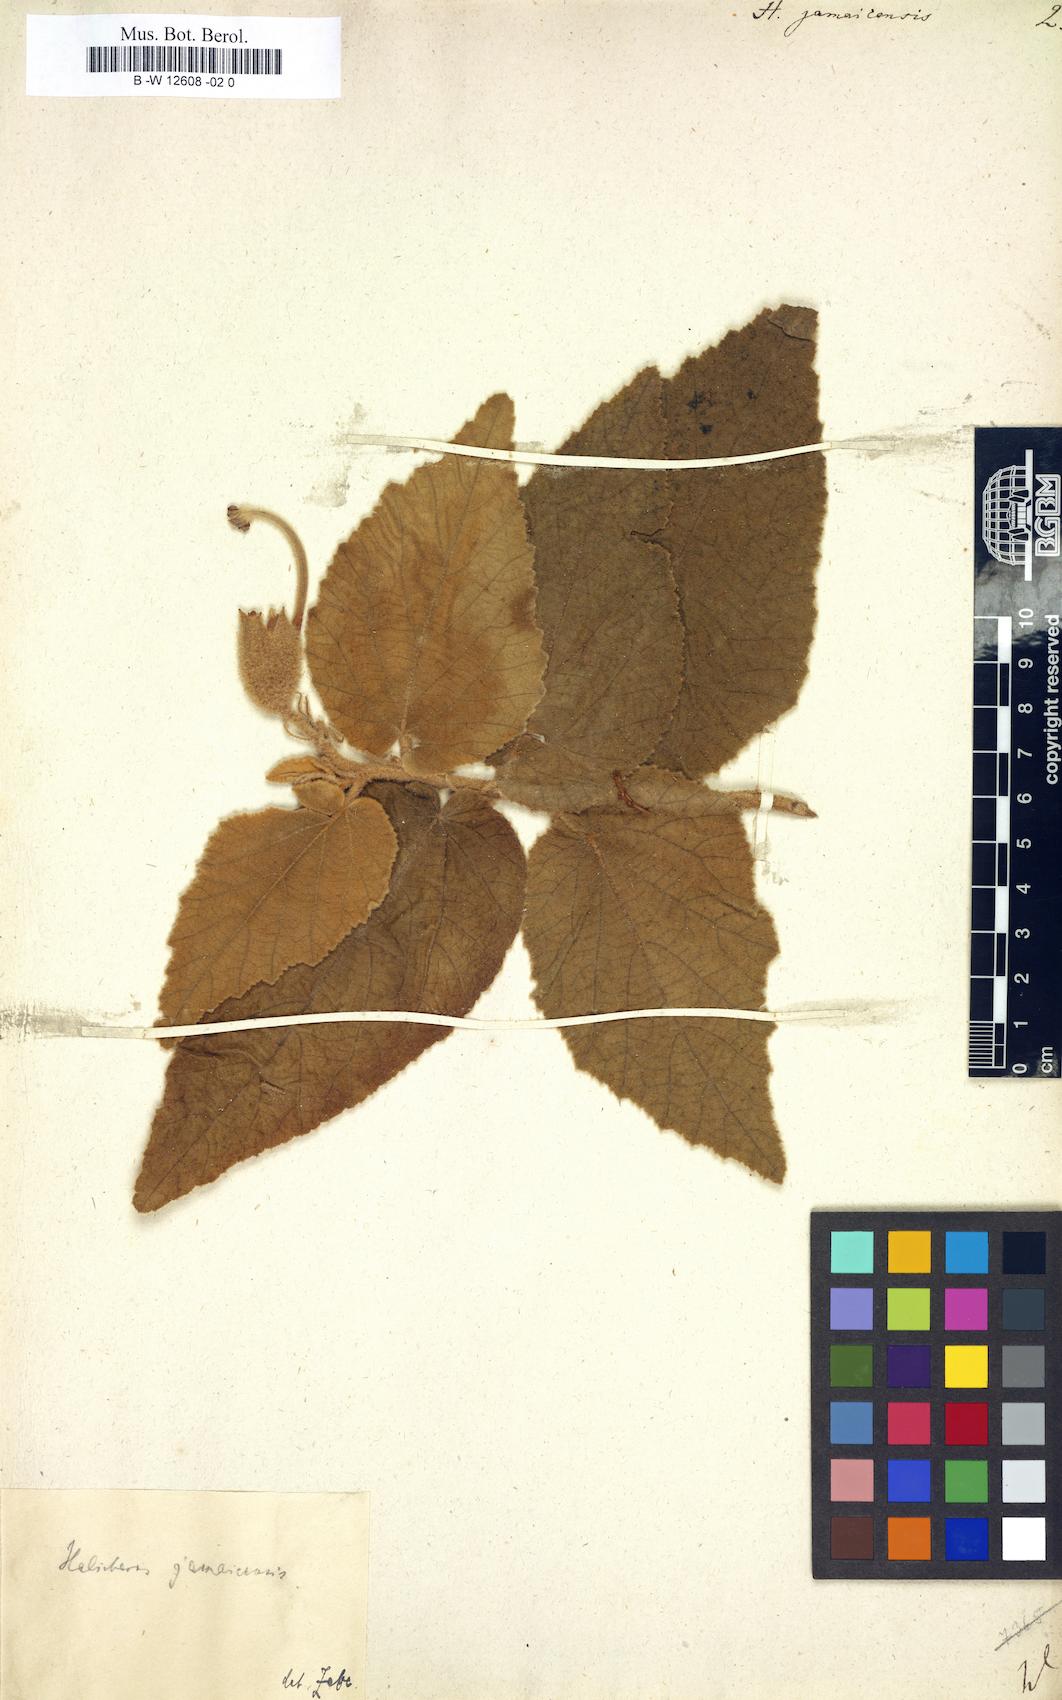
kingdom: Plantae
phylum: Tracheophyta
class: Magnoliopsida
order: Malvales
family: Malvaceae
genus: Helicteres
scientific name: Helicteres jamaicensis
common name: Cowbush
